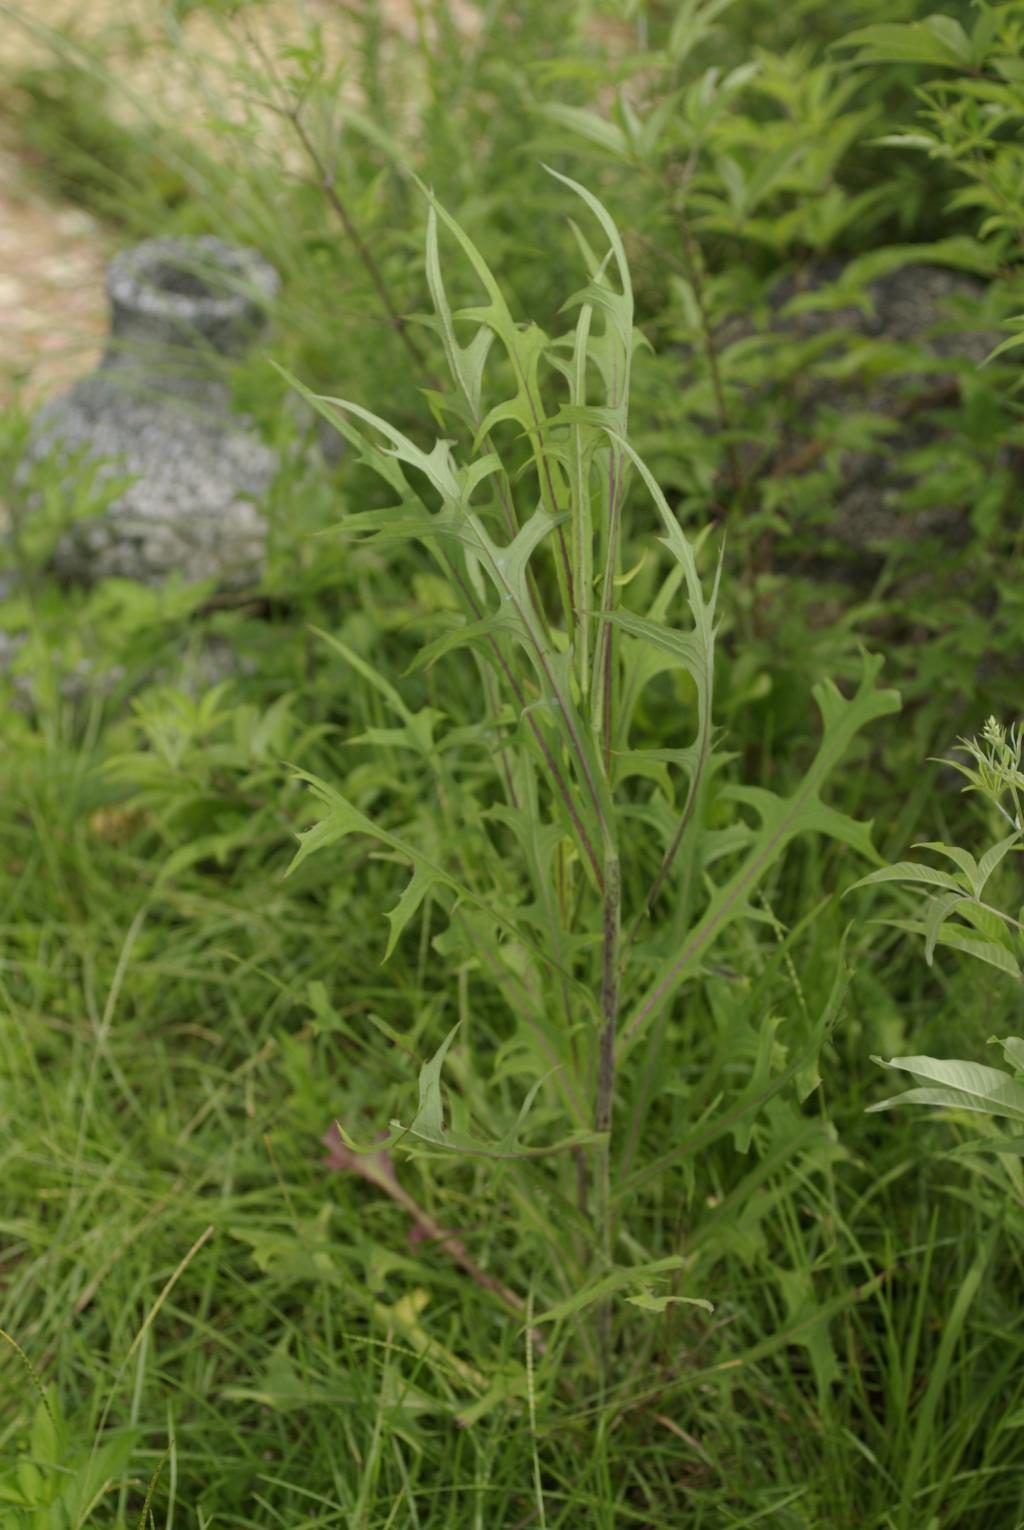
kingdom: Plantae
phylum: Tracheophyta
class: Magnoliopsida
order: Asterales
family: Asteraceae
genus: Lactuca
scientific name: Lactuca indica
